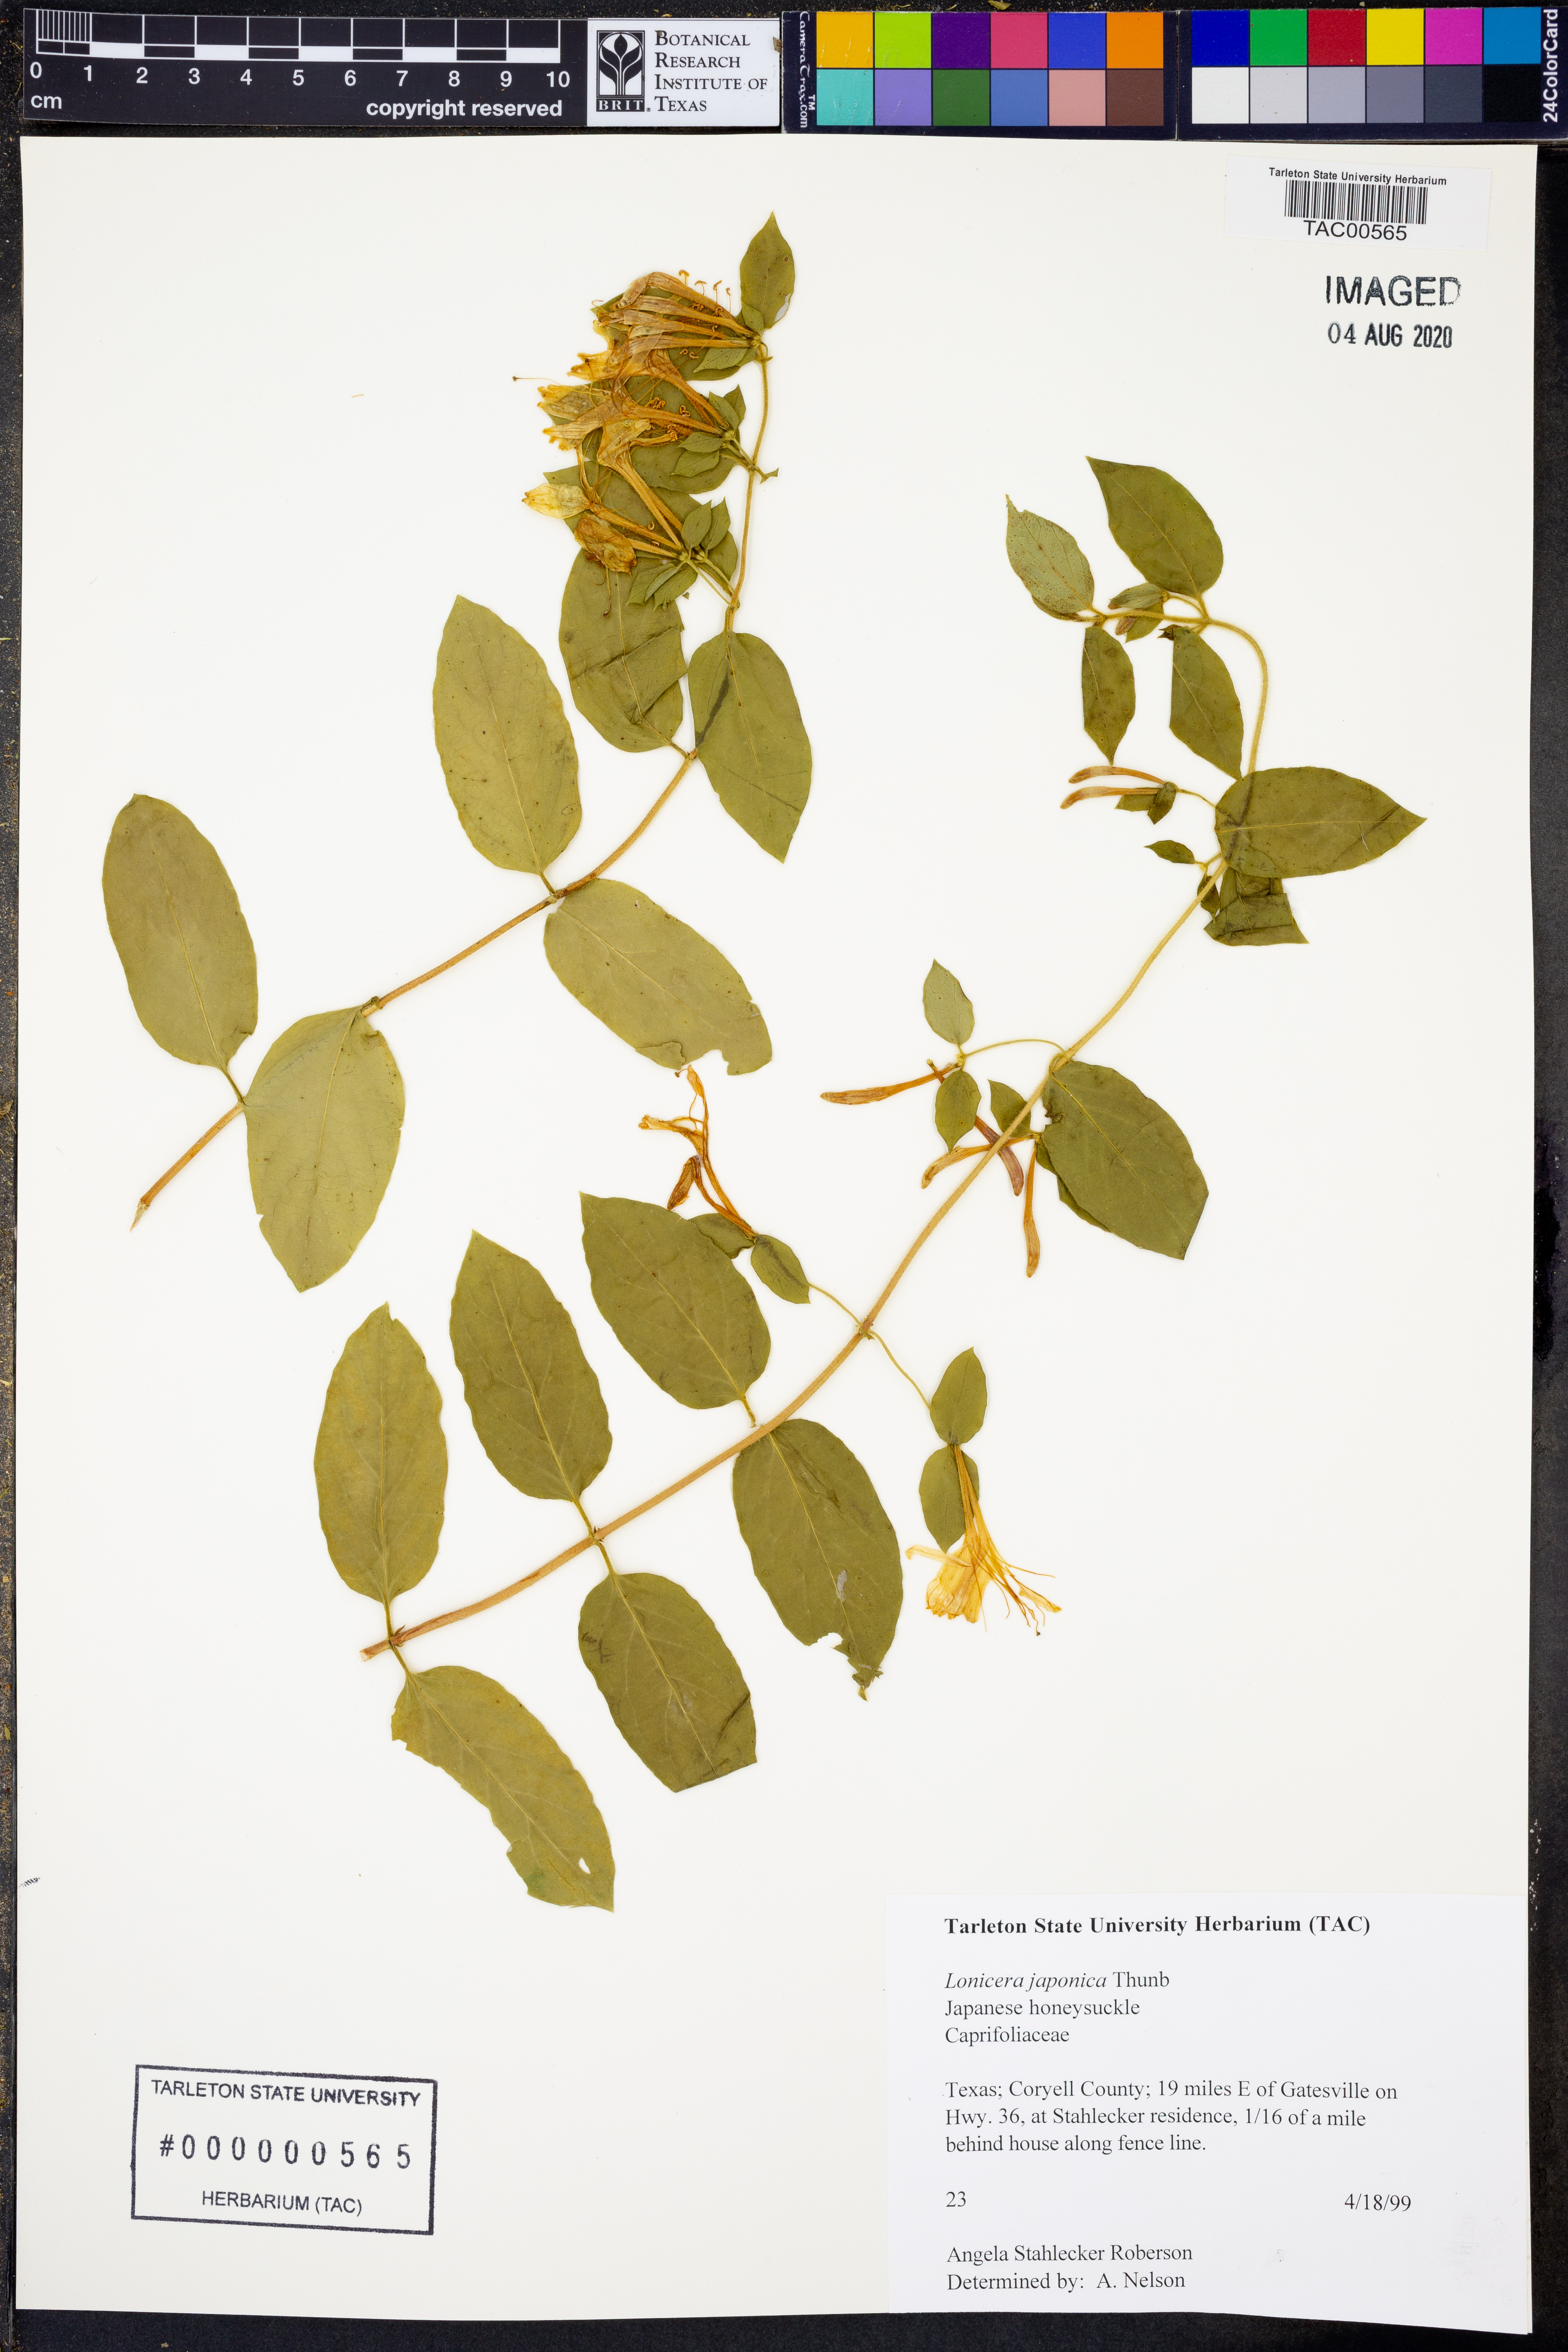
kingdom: Plantae
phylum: Tracheophyta
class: Magnoliopsida
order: Dipsacales
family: Caprifoliaceae
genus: Lonicera
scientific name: Lonicera japonica
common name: Japanese honeysuckle
